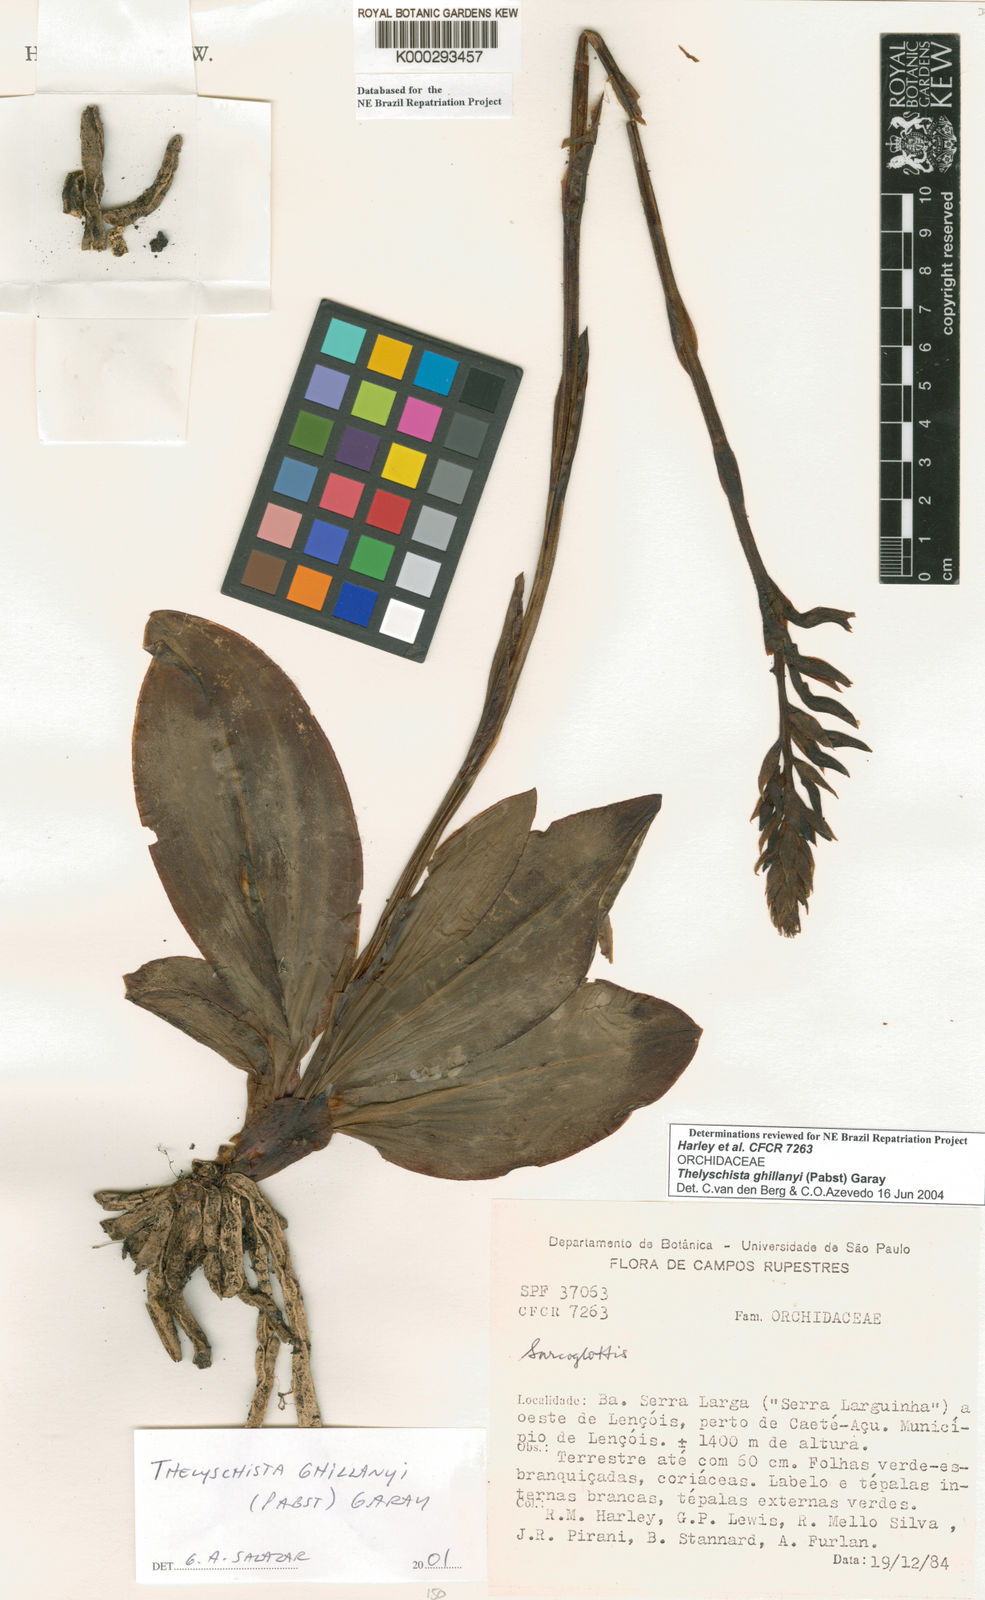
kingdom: Plantae
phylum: Tracheophyta
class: Liliopsida
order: Asparagales
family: Orchidaceae
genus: Thelyschista
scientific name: Thelyschista ghillanyi
